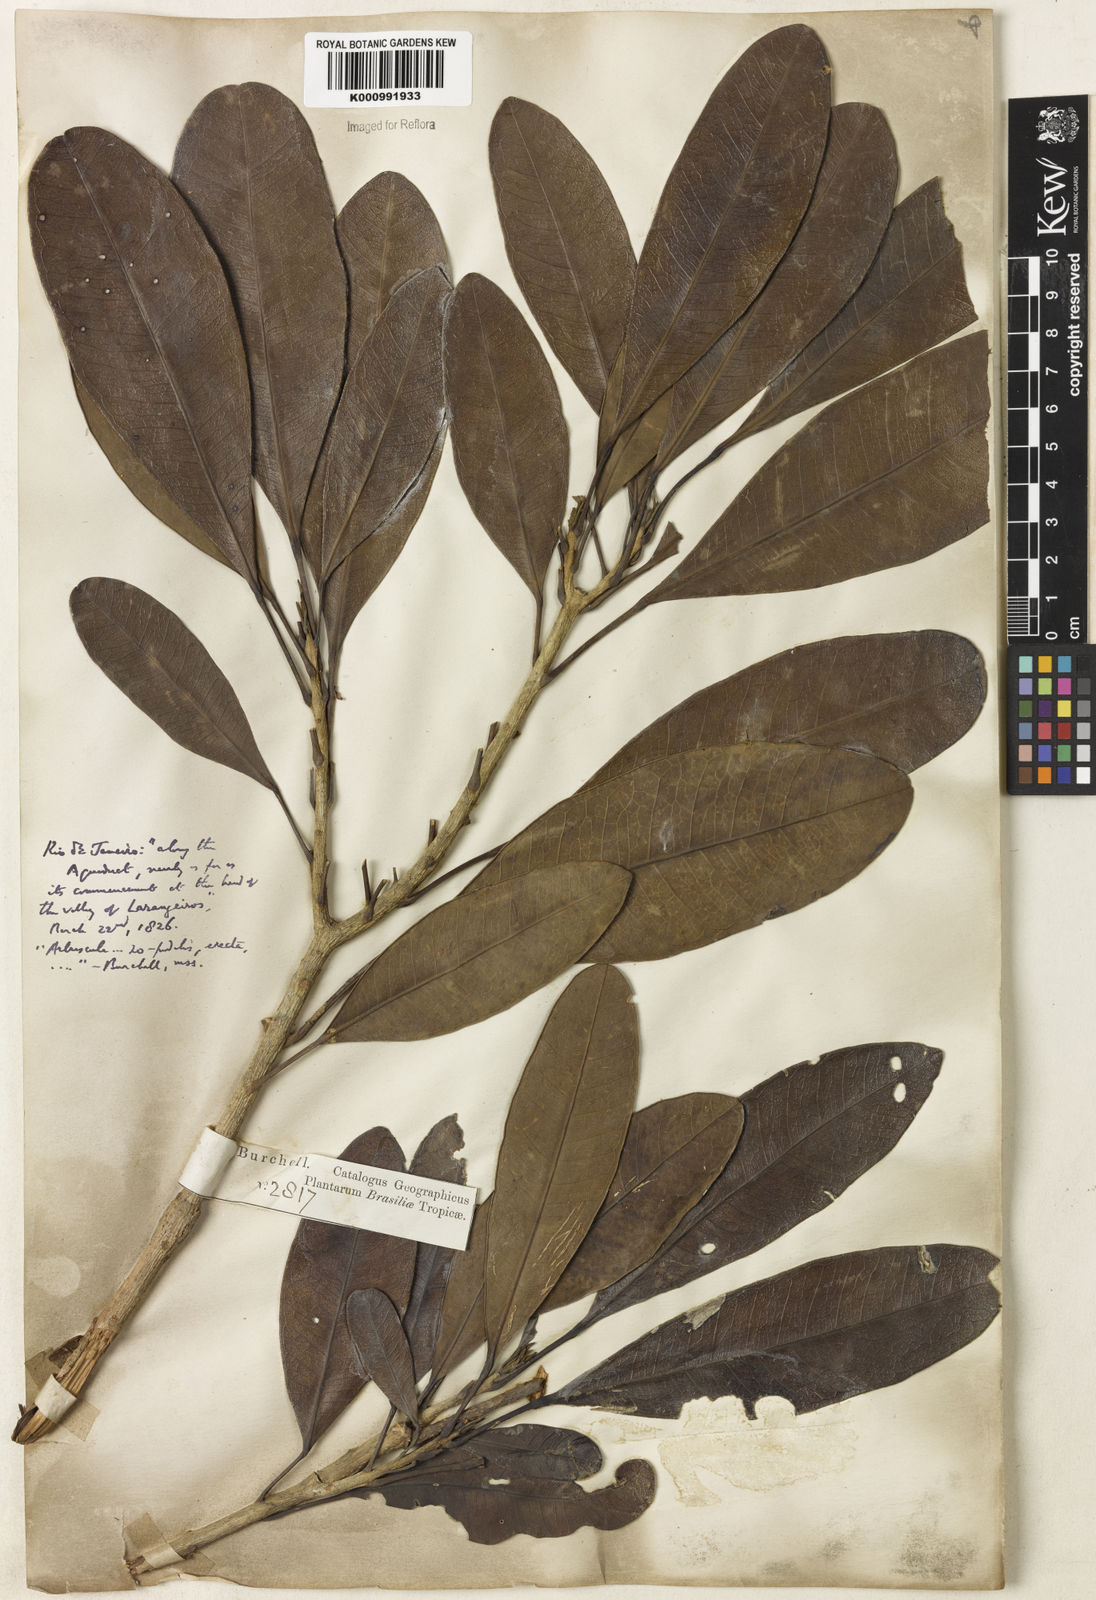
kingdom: Plantae
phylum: Tracheophyta
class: Magnoliopsida
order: Lamiales
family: Bignoniaceae
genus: Tabebuia
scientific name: Tabebuia obtusifolia
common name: Guadeloupe trumpet-tree
